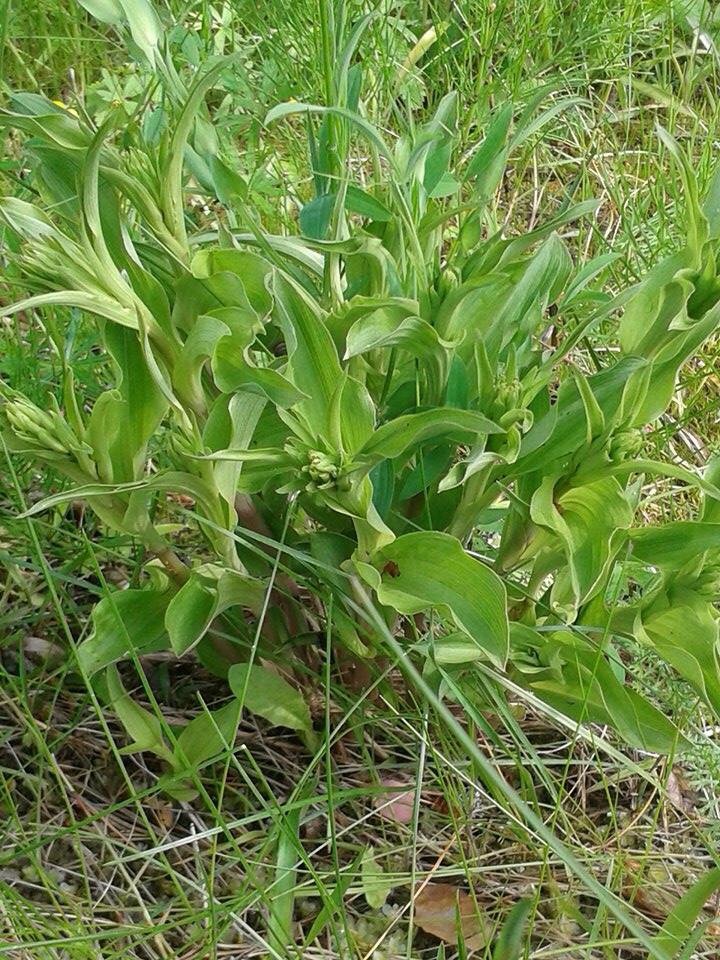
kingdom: Plantae
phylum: Tracheophyta
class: Liliopsida
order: Asparagales
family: Orchidaceae
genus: Epipactis
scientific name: Epipactis helleborine
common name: Broad-leaved helleborine
